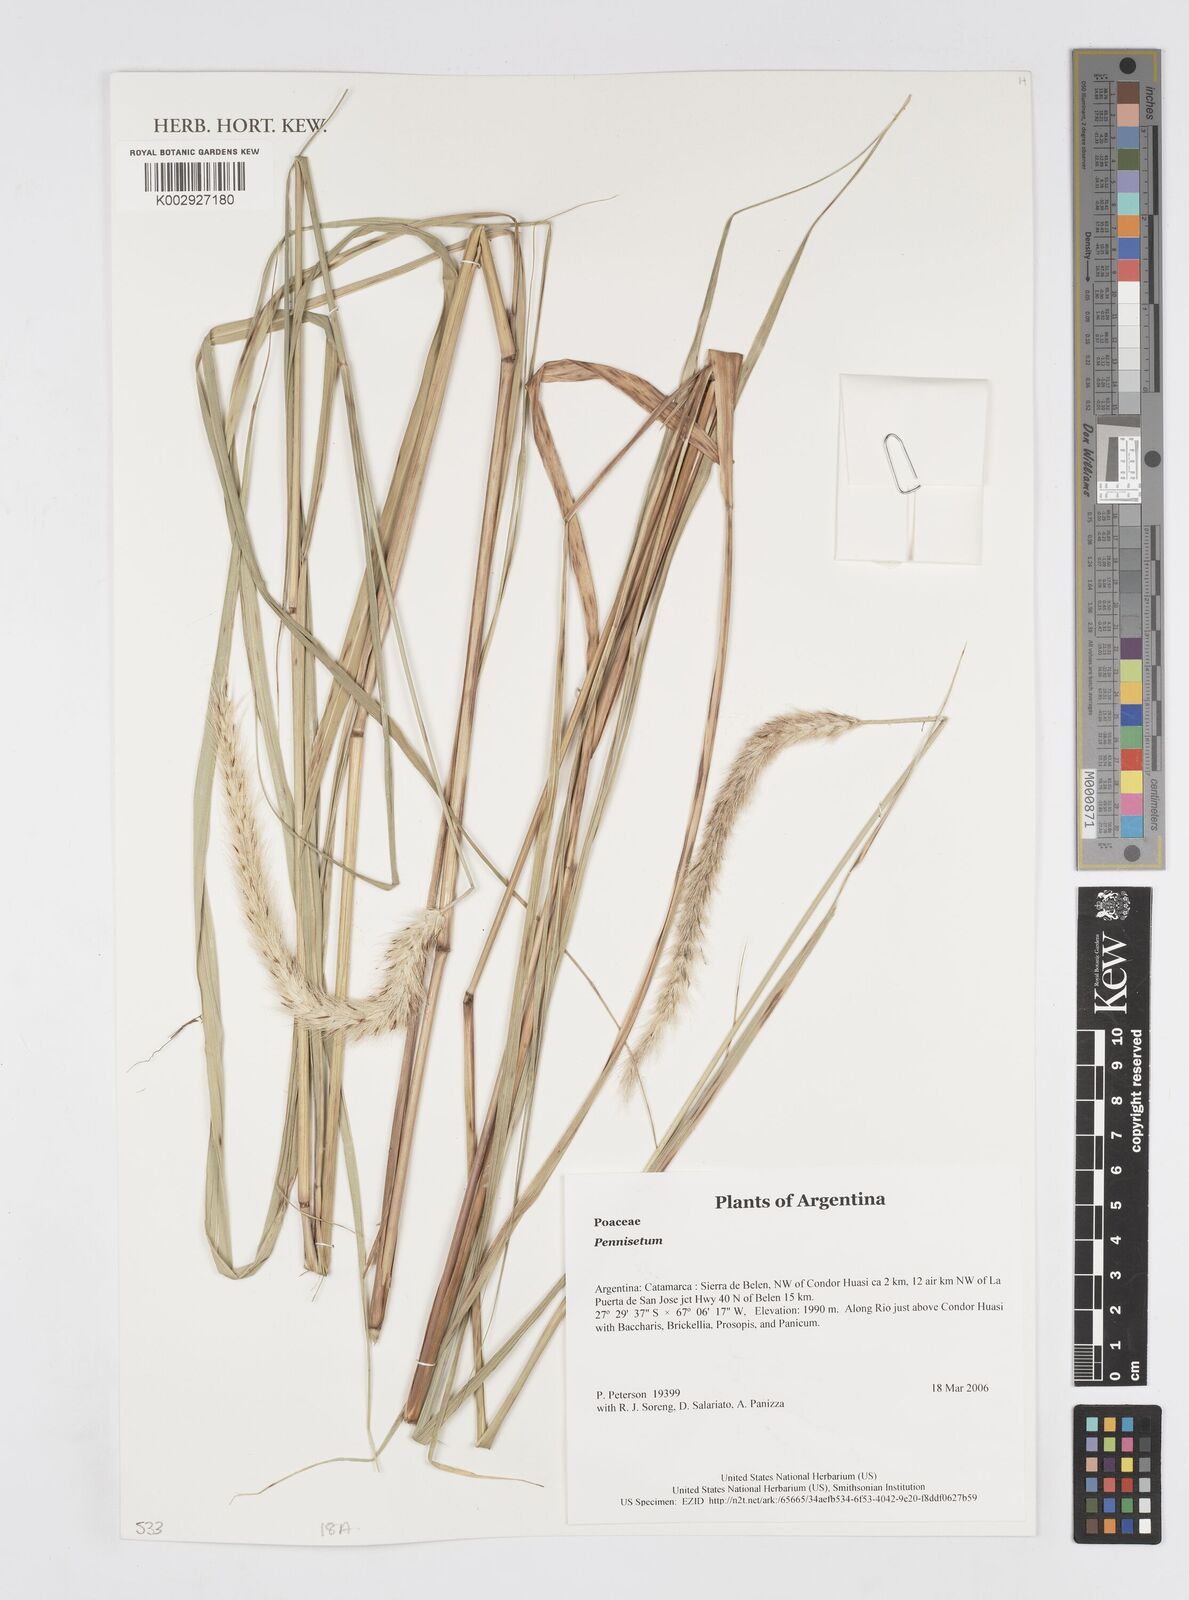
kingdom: Plantae
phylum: Tracheophyta
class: Liliopsida
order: Poales
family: Poaceae
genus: Cenchrus
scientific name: Cenchrus Pennisetum spec
